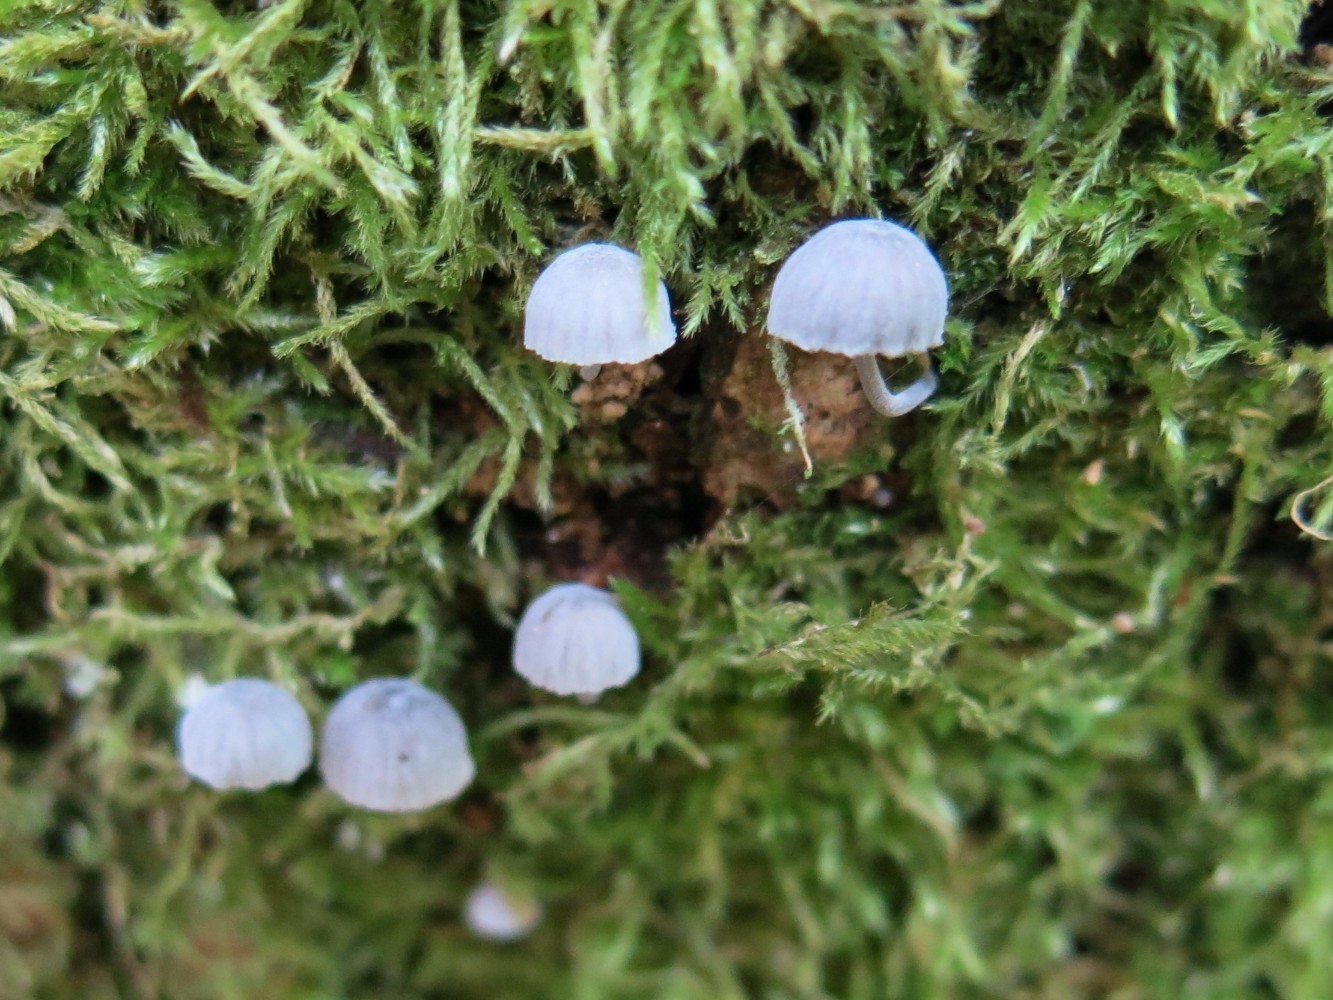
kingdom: Fungi
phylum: Basidiomycota
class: Agaricomycetes
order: Agaricales
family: Mycenaceae
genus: Mycena
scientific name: Mycena pseudocorticola
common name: gråblå bark-huesvamp
